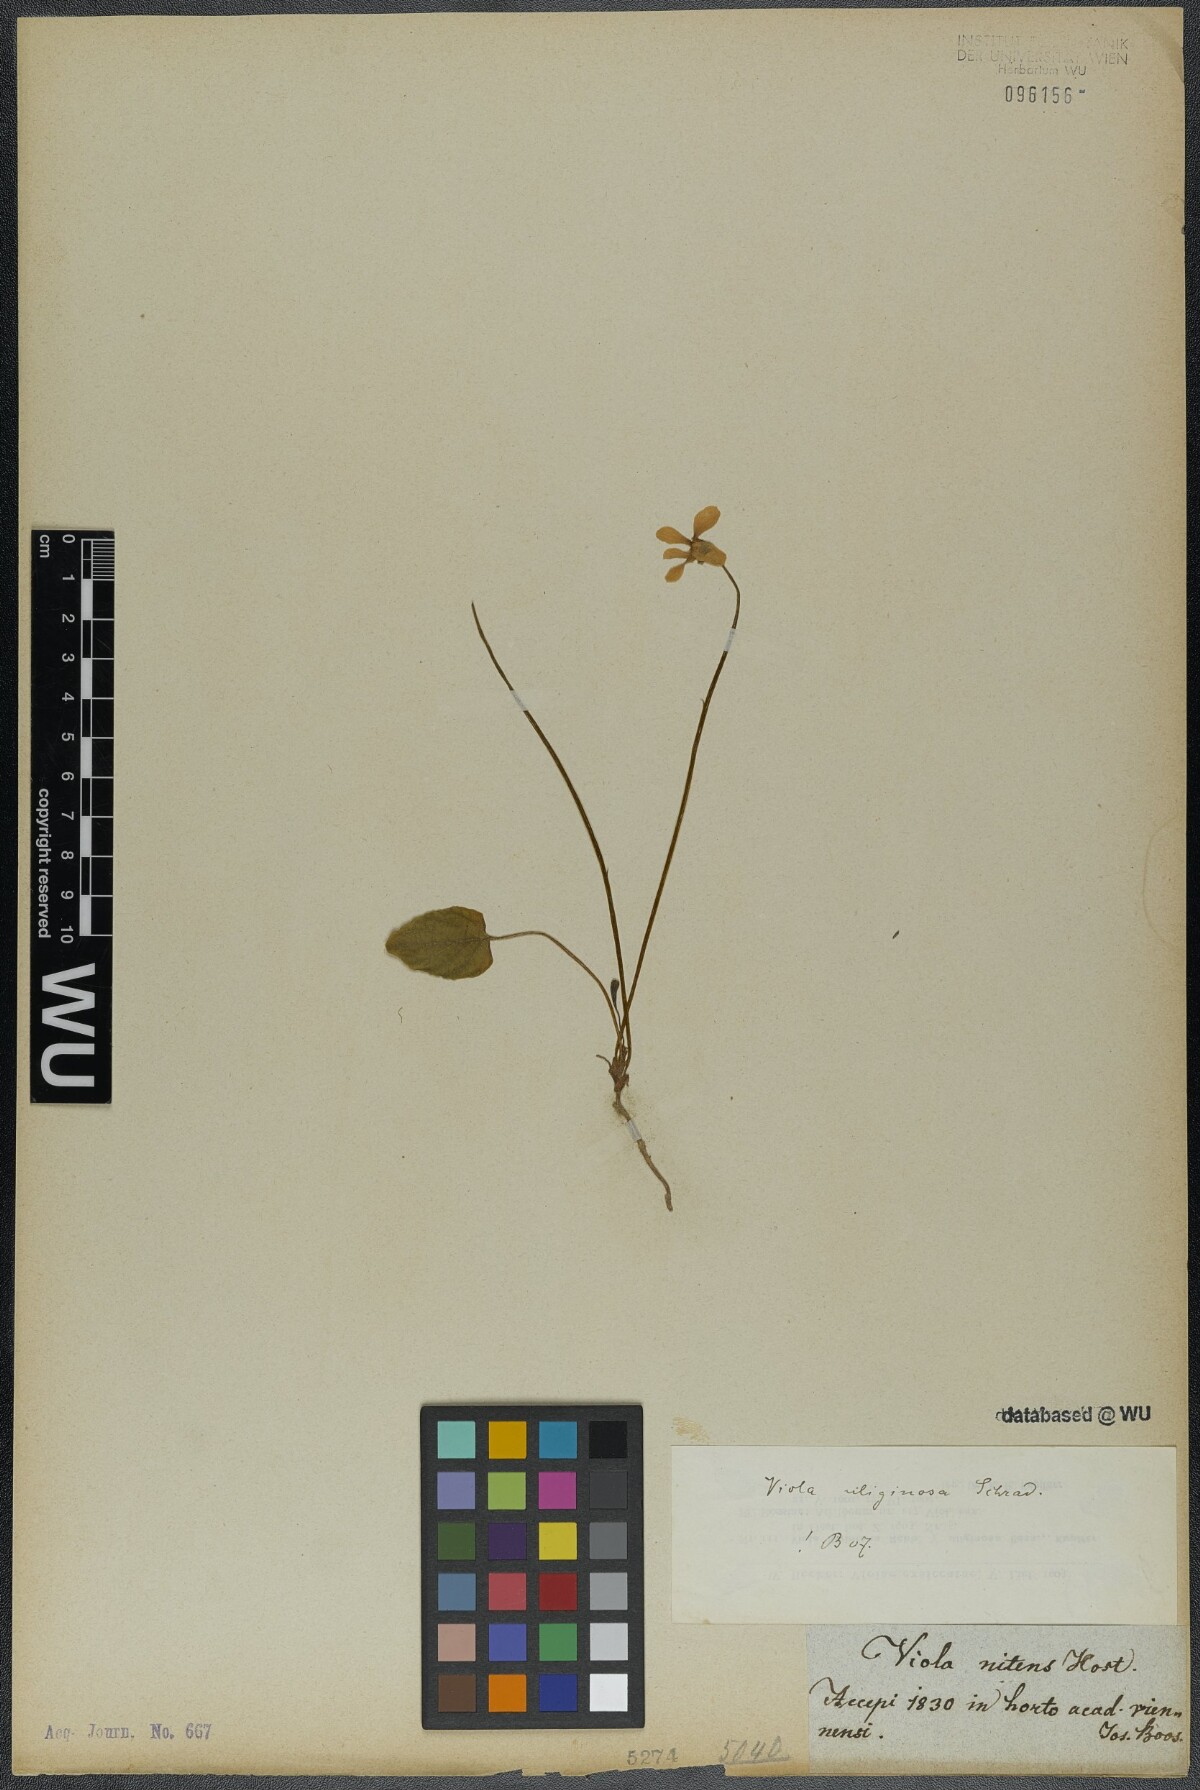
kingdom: Plantae
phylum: Tracheophyta
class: Magnoliopsida
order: Malpighiales
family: Violaceae
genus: Viola
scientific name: Viola uliginosa
